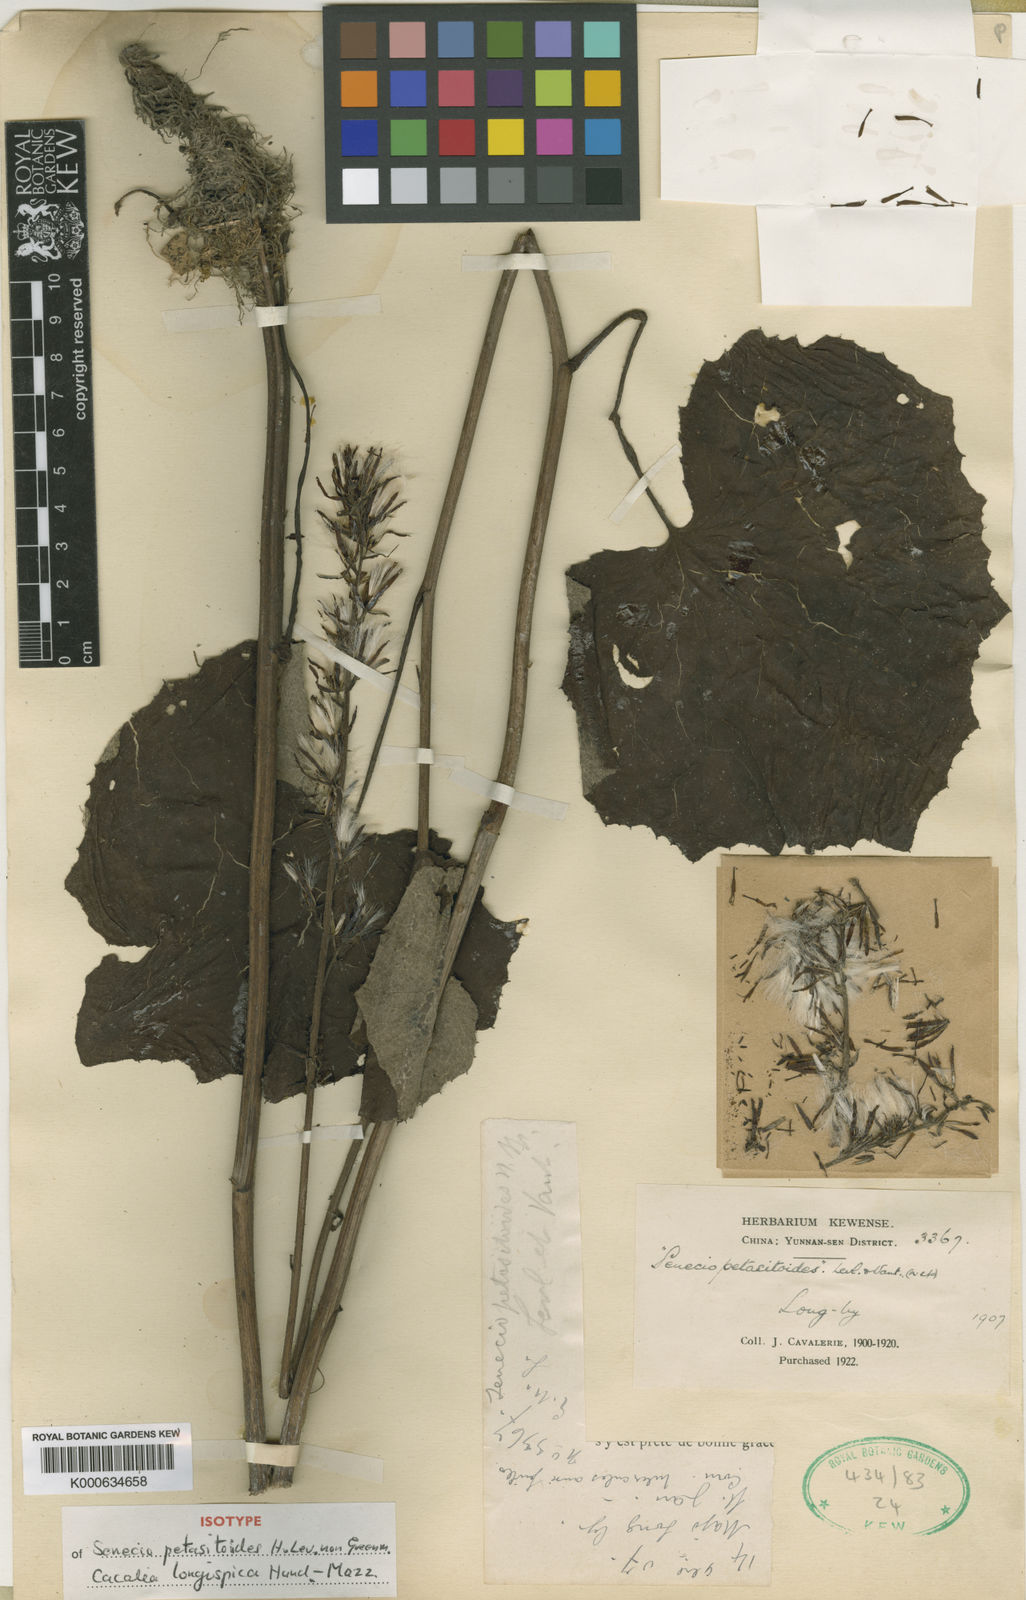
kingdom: Plantae
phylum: Tracheophyta
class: Magnoliopsida
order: Asterales
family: Asteraceae
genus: Parasenecio
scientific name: Parasenecio
